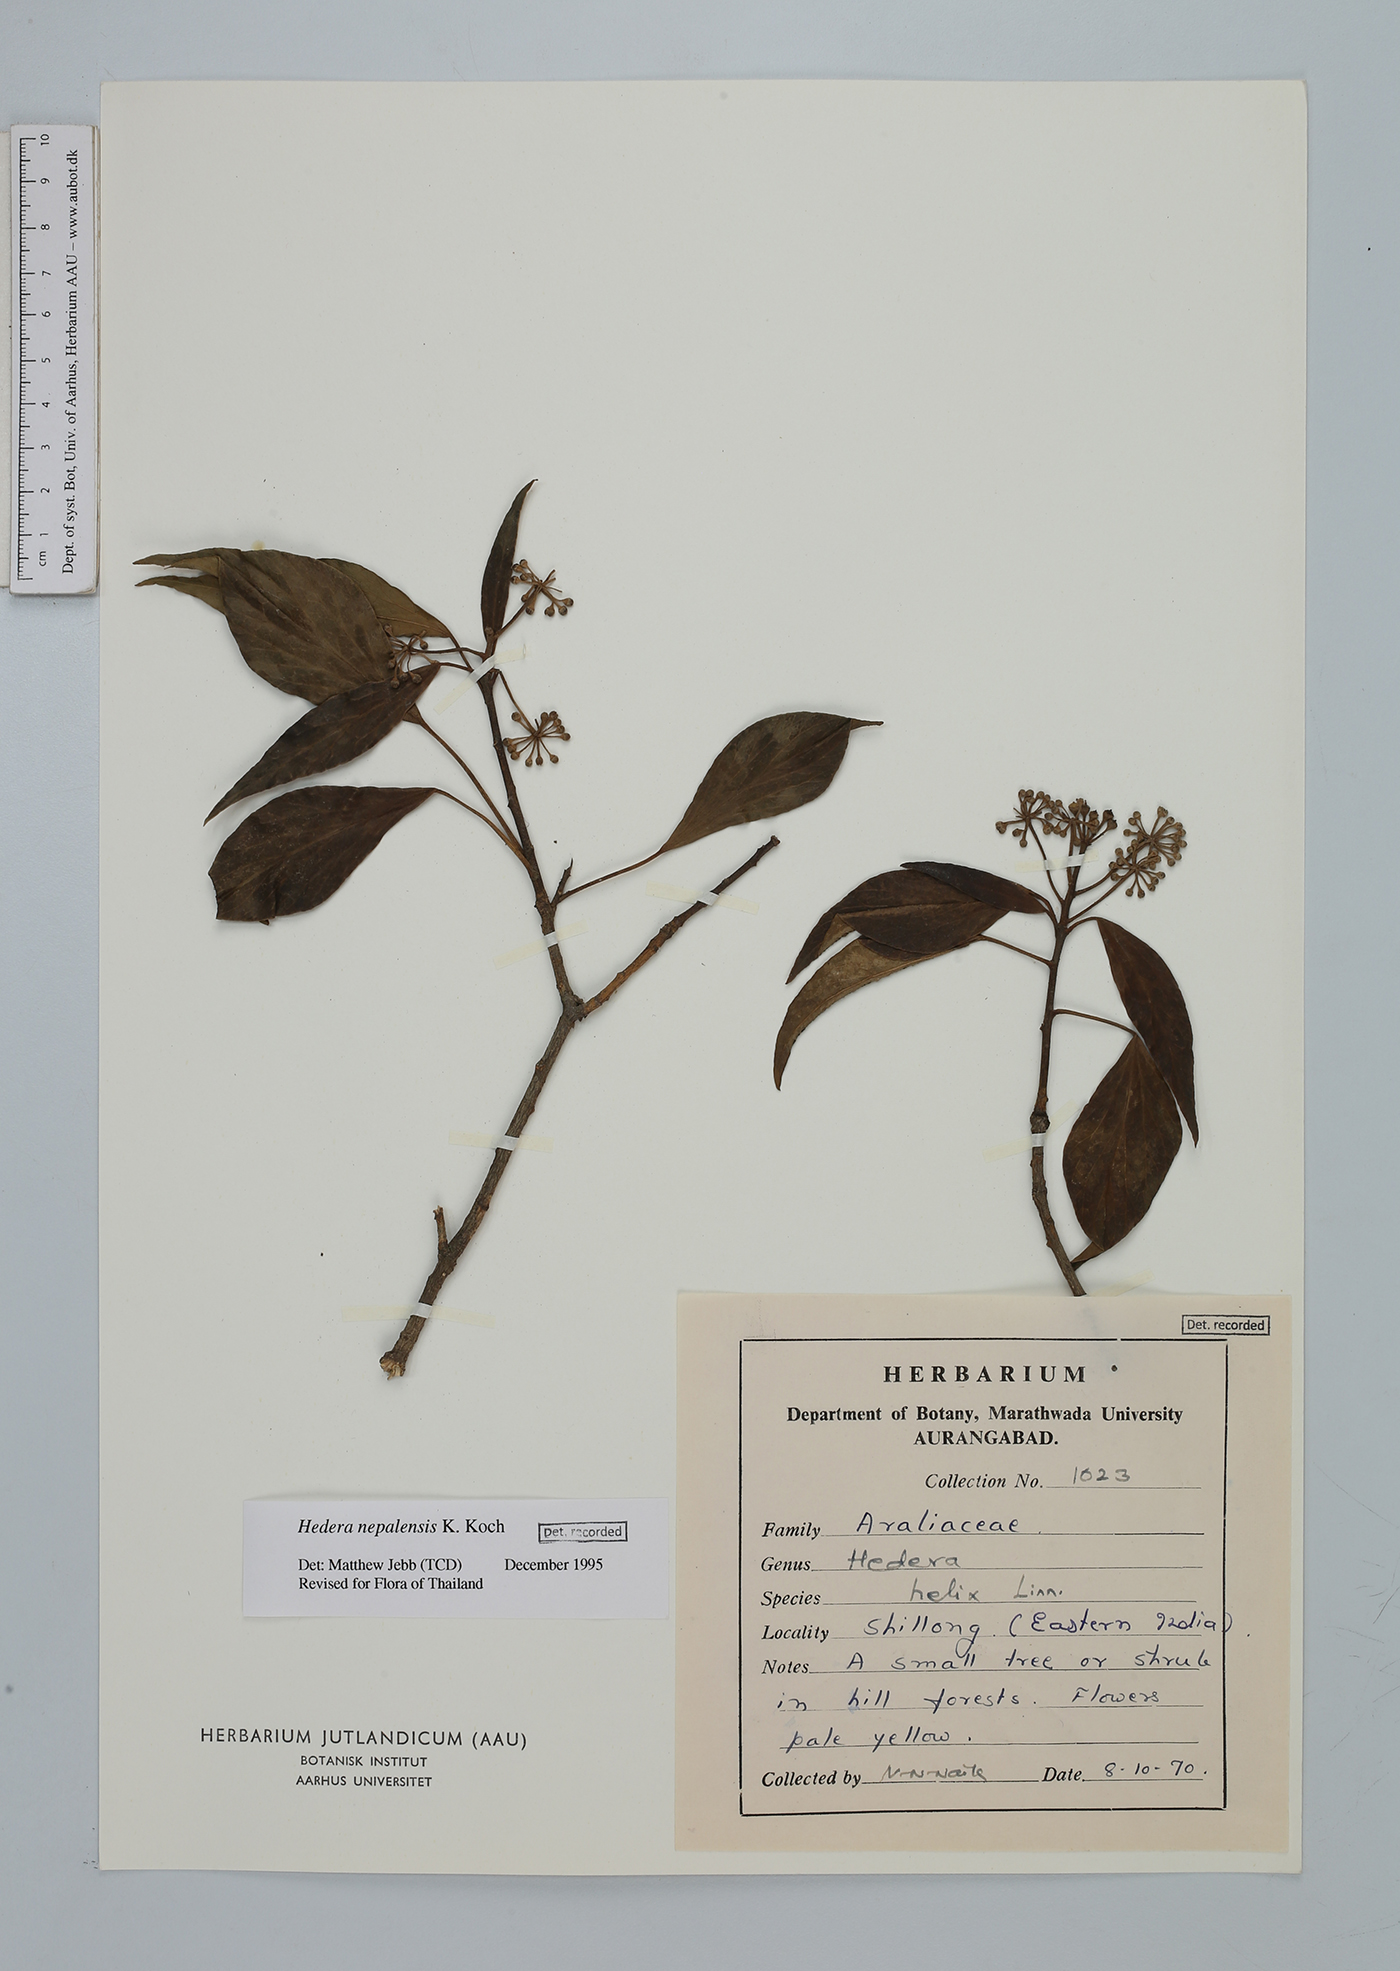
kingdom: Plantae
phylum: Tracheophyta
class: Magnoliopsida
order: Apiales
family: Araliaceae
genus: Hedera
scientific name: Hedera nepalensis
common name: Himalayan ivy
